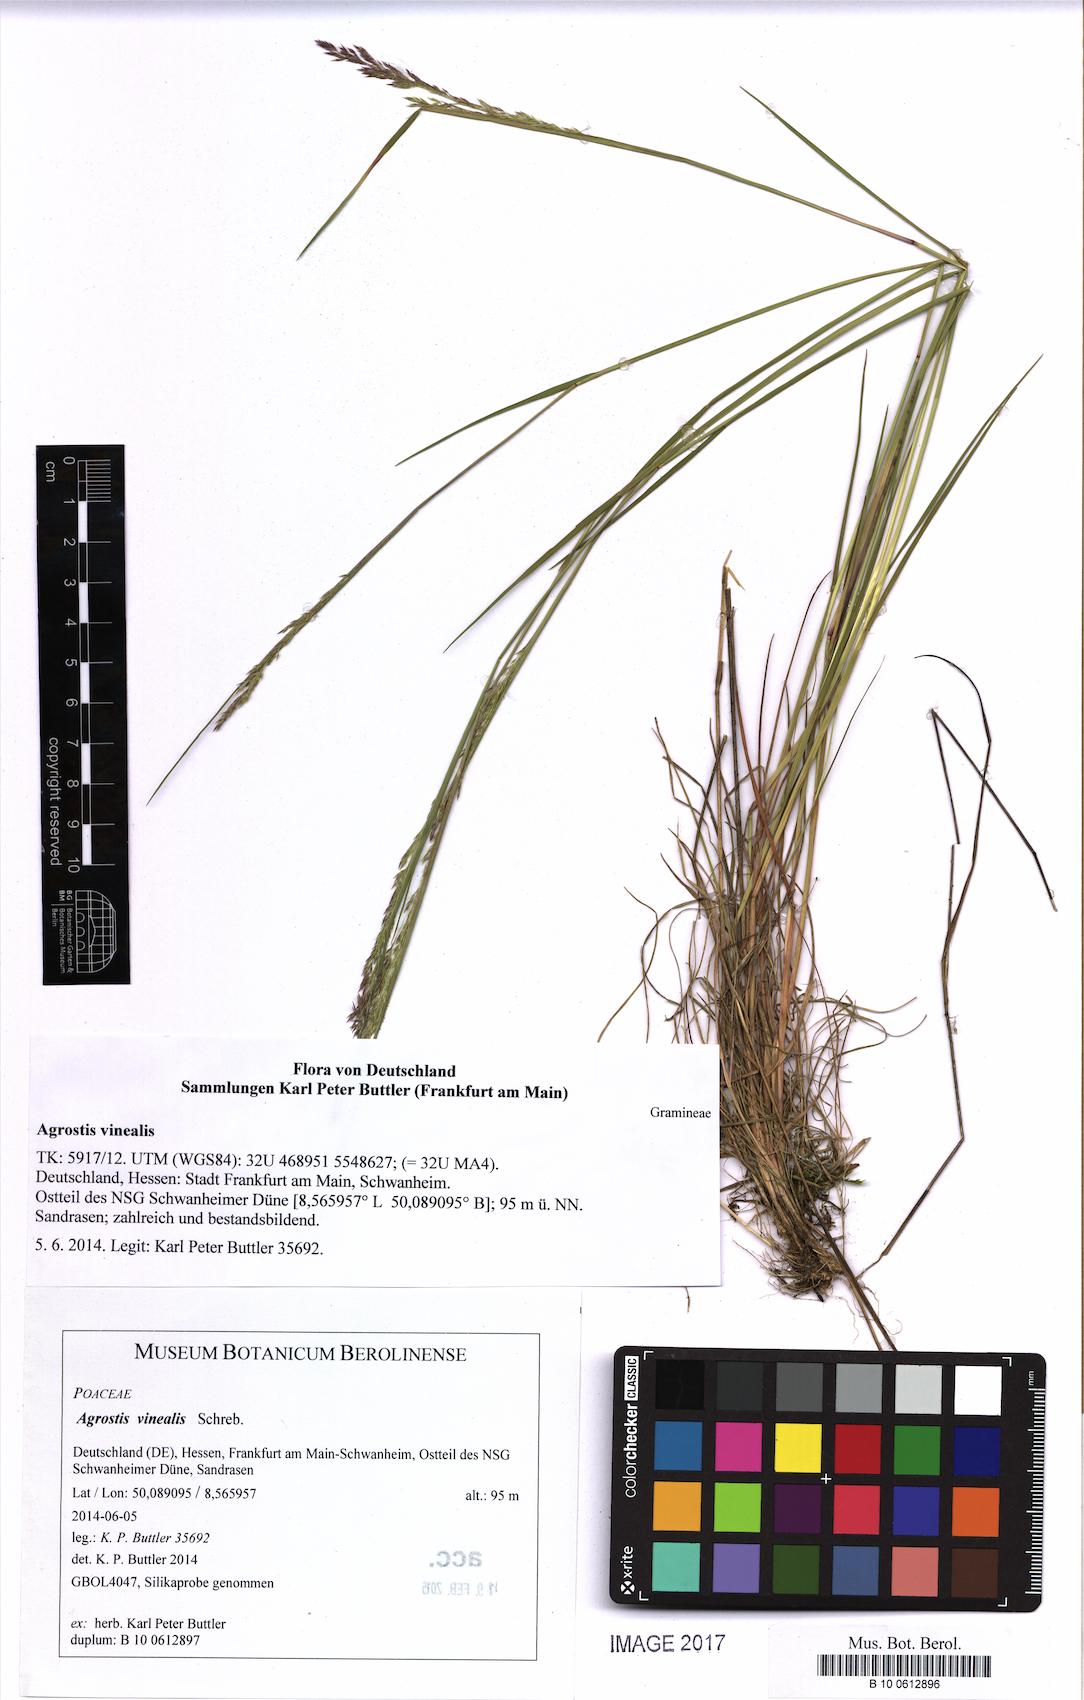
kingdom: Plantae
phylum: Tracheophyta
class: Liliopsida
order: Poales
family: Poaceae
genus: Agrostis
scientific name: Agrostis vinealis
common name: Brown bent
